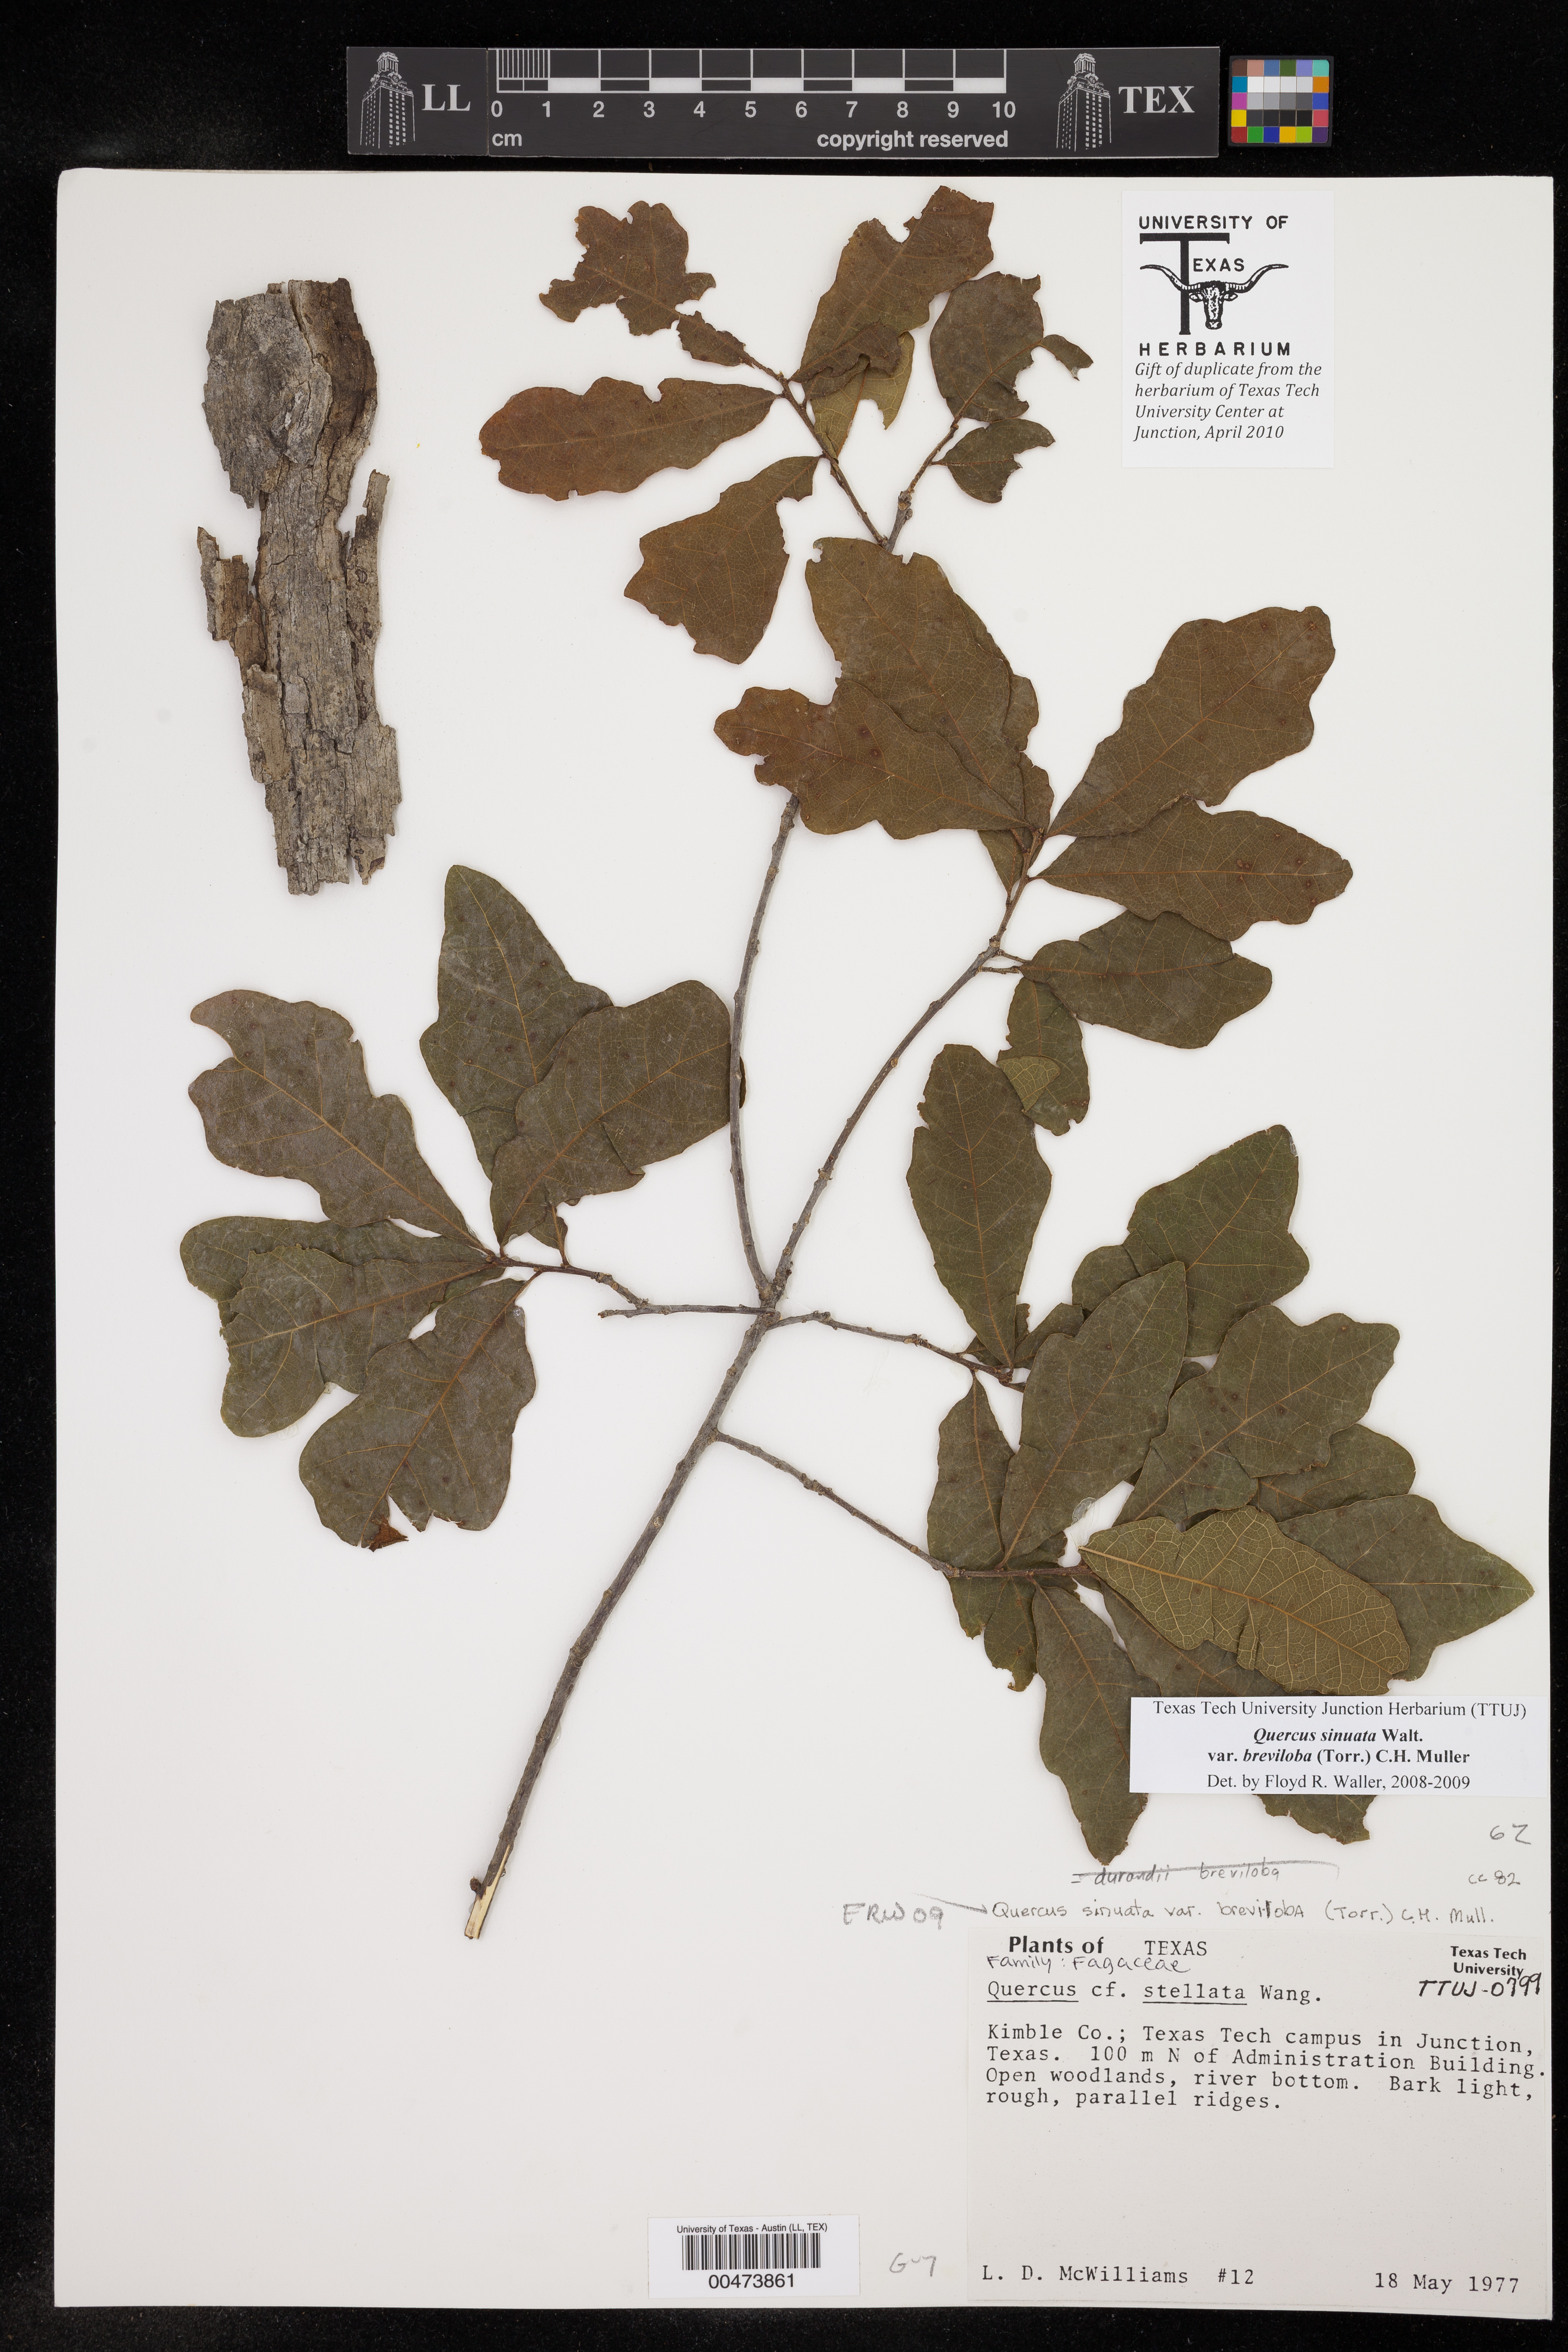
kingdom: Plantae
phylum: Tracheophyta
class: Magnoliopsida
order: Fagales
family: Fagaceae
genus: Quercus
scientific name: Quercus sinuata
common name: Durand oak
